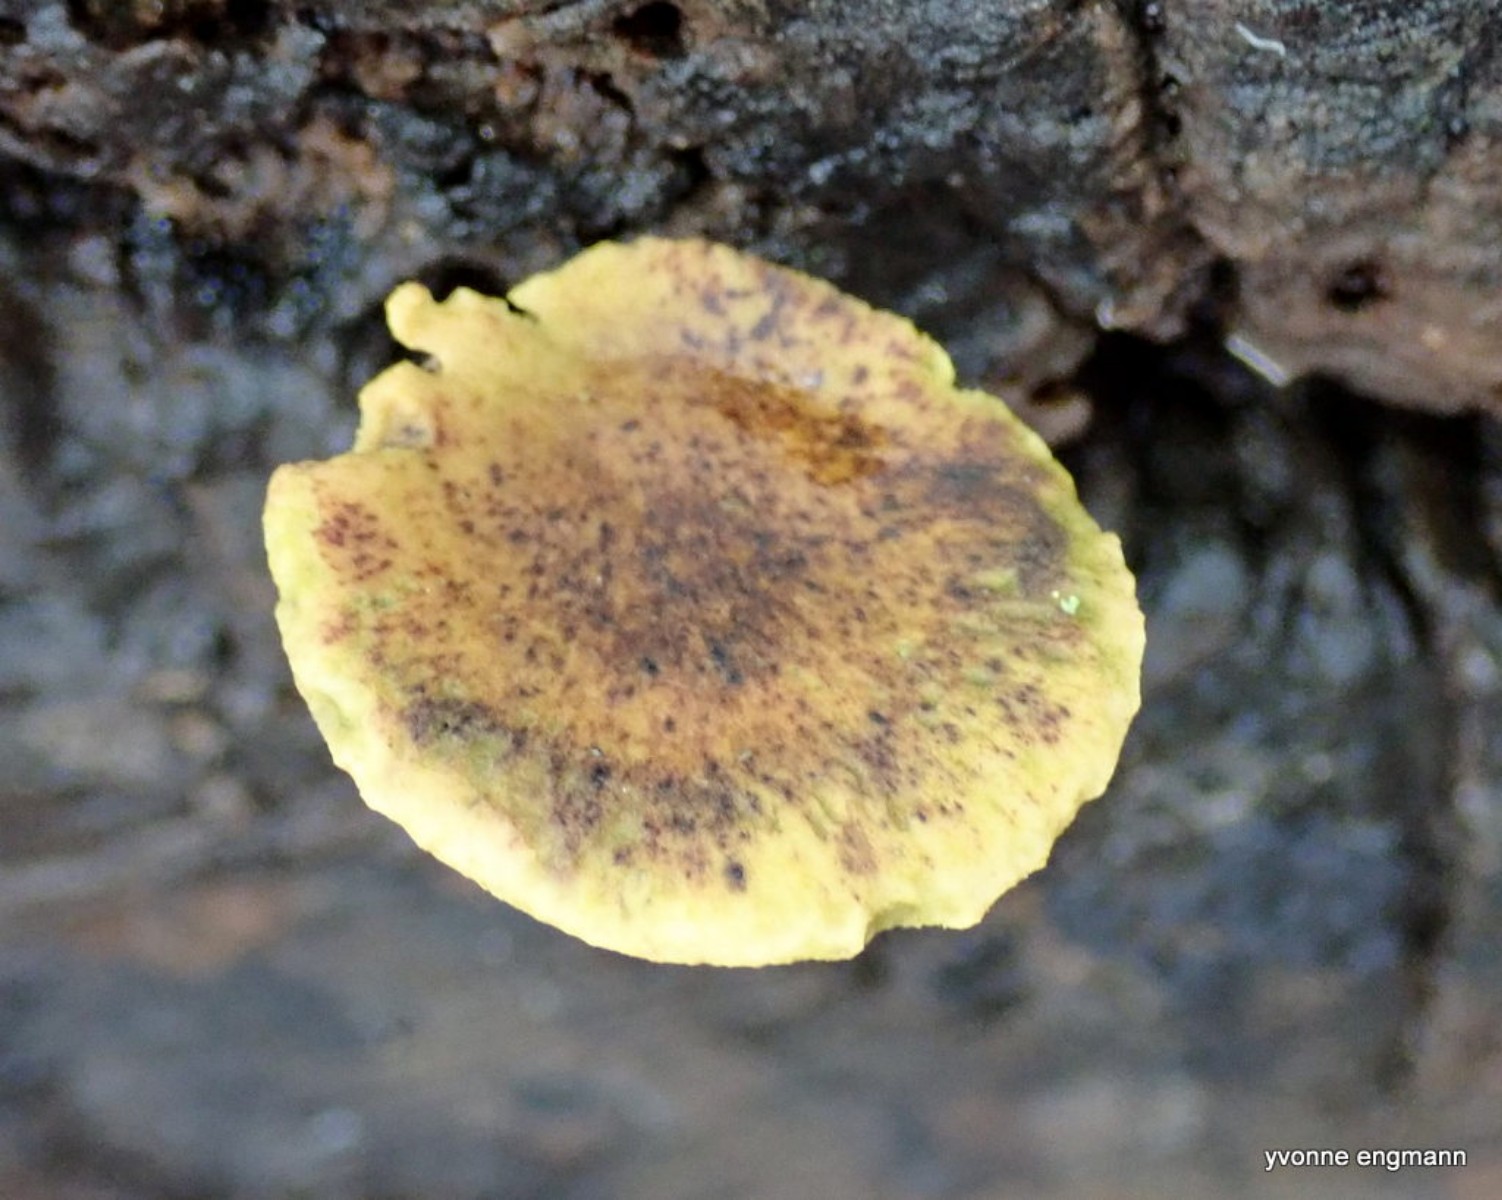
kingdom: Fungi
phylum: Basidiomycota
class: Agaricomycetes
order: Polyporales
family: Polyporaceae
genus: Cerioporus
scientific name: Cerioporus varius
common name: foranderlig stilkporesvamp
